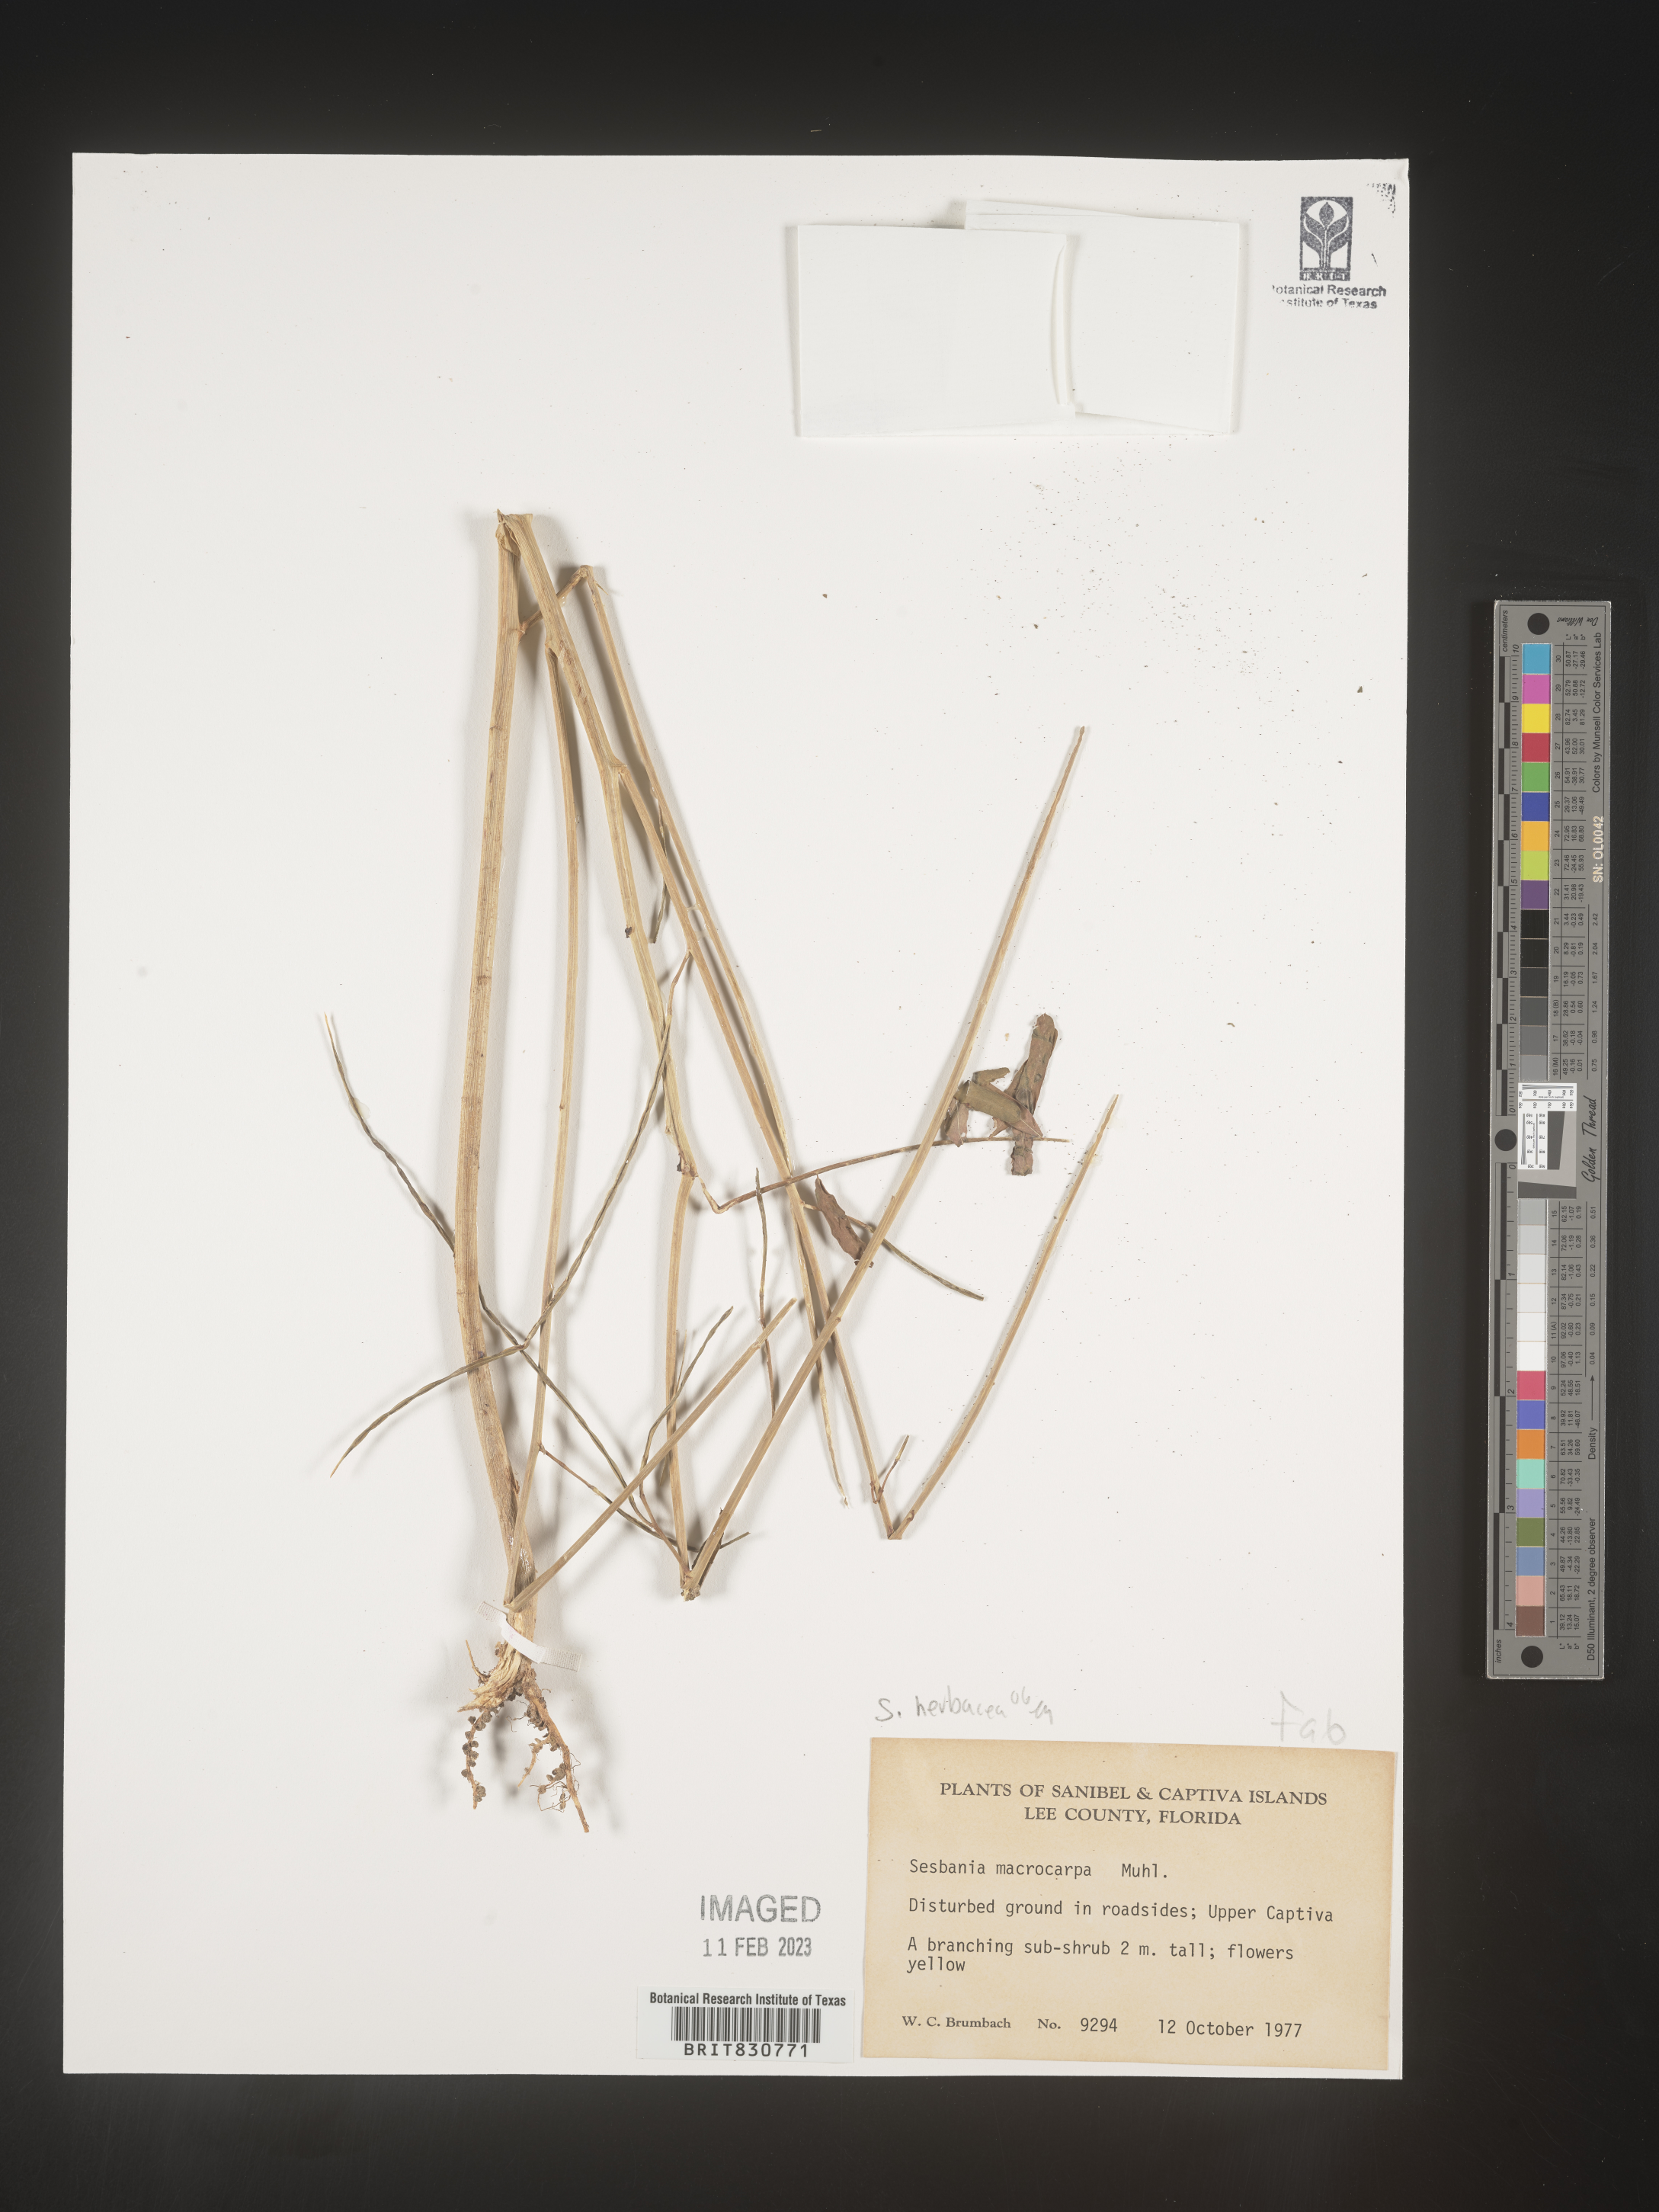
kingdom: Plantae
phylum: Tracheophyta
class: Magnoliopsida
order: Fabales
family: Fabaceae
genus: Sesbania
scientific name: Sesbania vesicaria
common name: Bagpod
